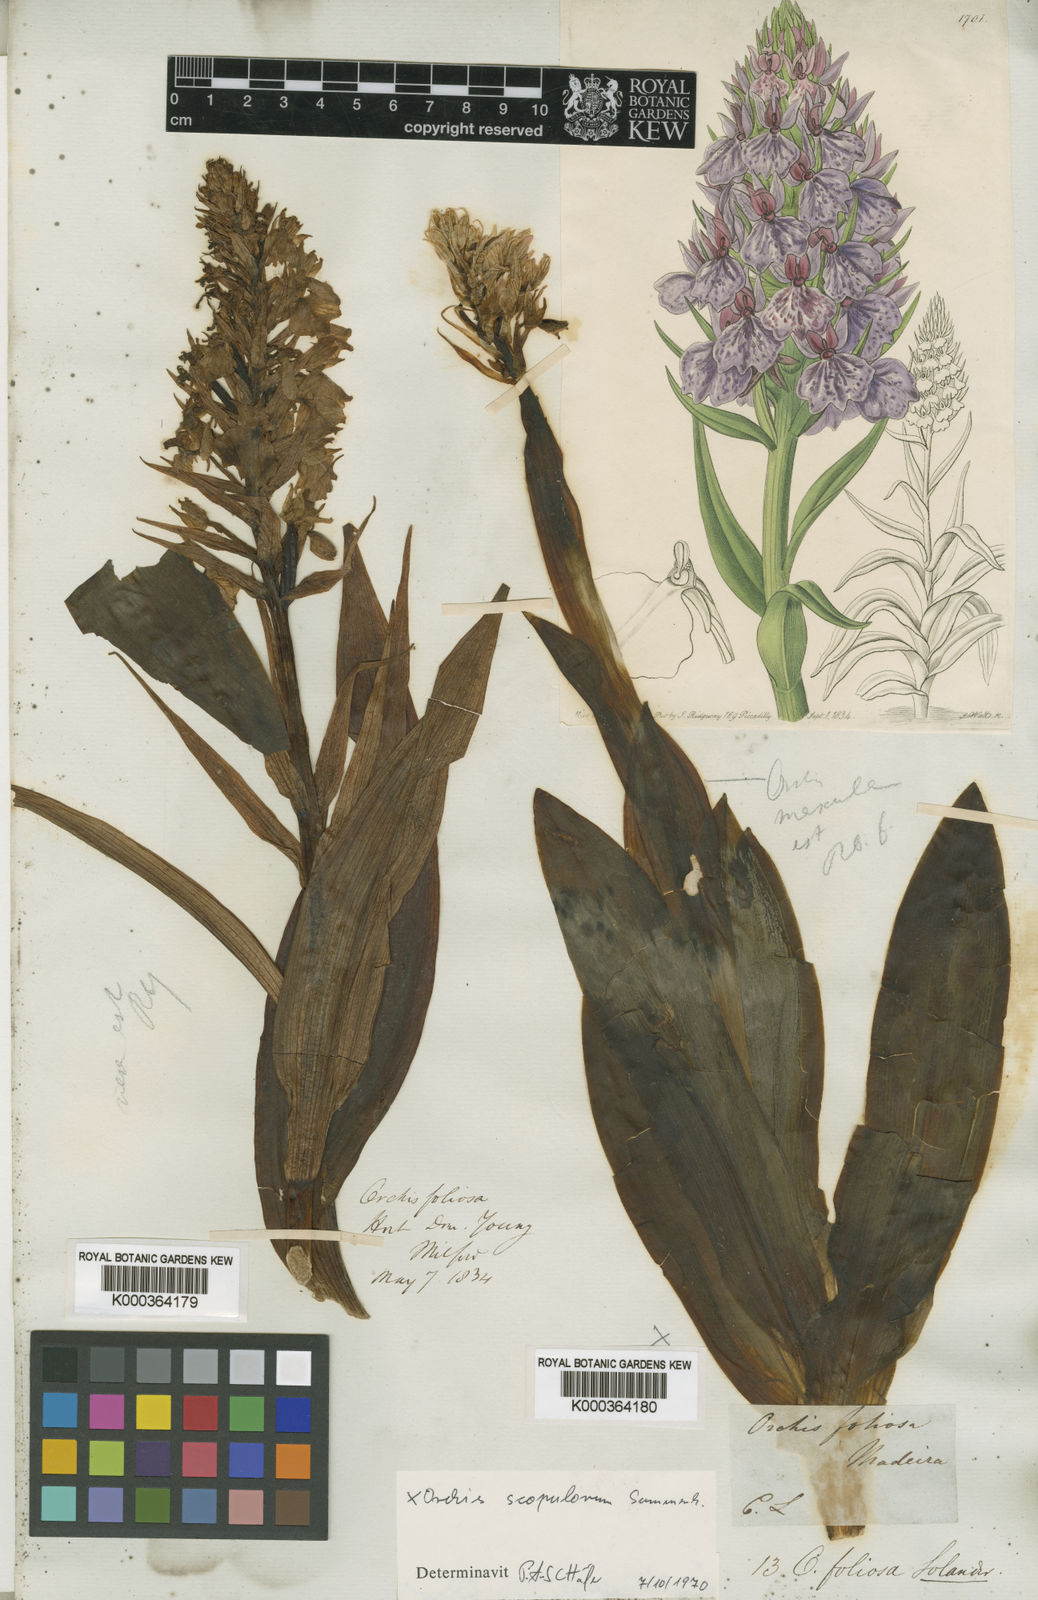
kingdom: Plantae
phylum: Tracheophyta
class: Liliopsida
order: Asparagales
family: Orchidaceae
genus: Dactylorhiza
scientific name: Dactylorhiza
